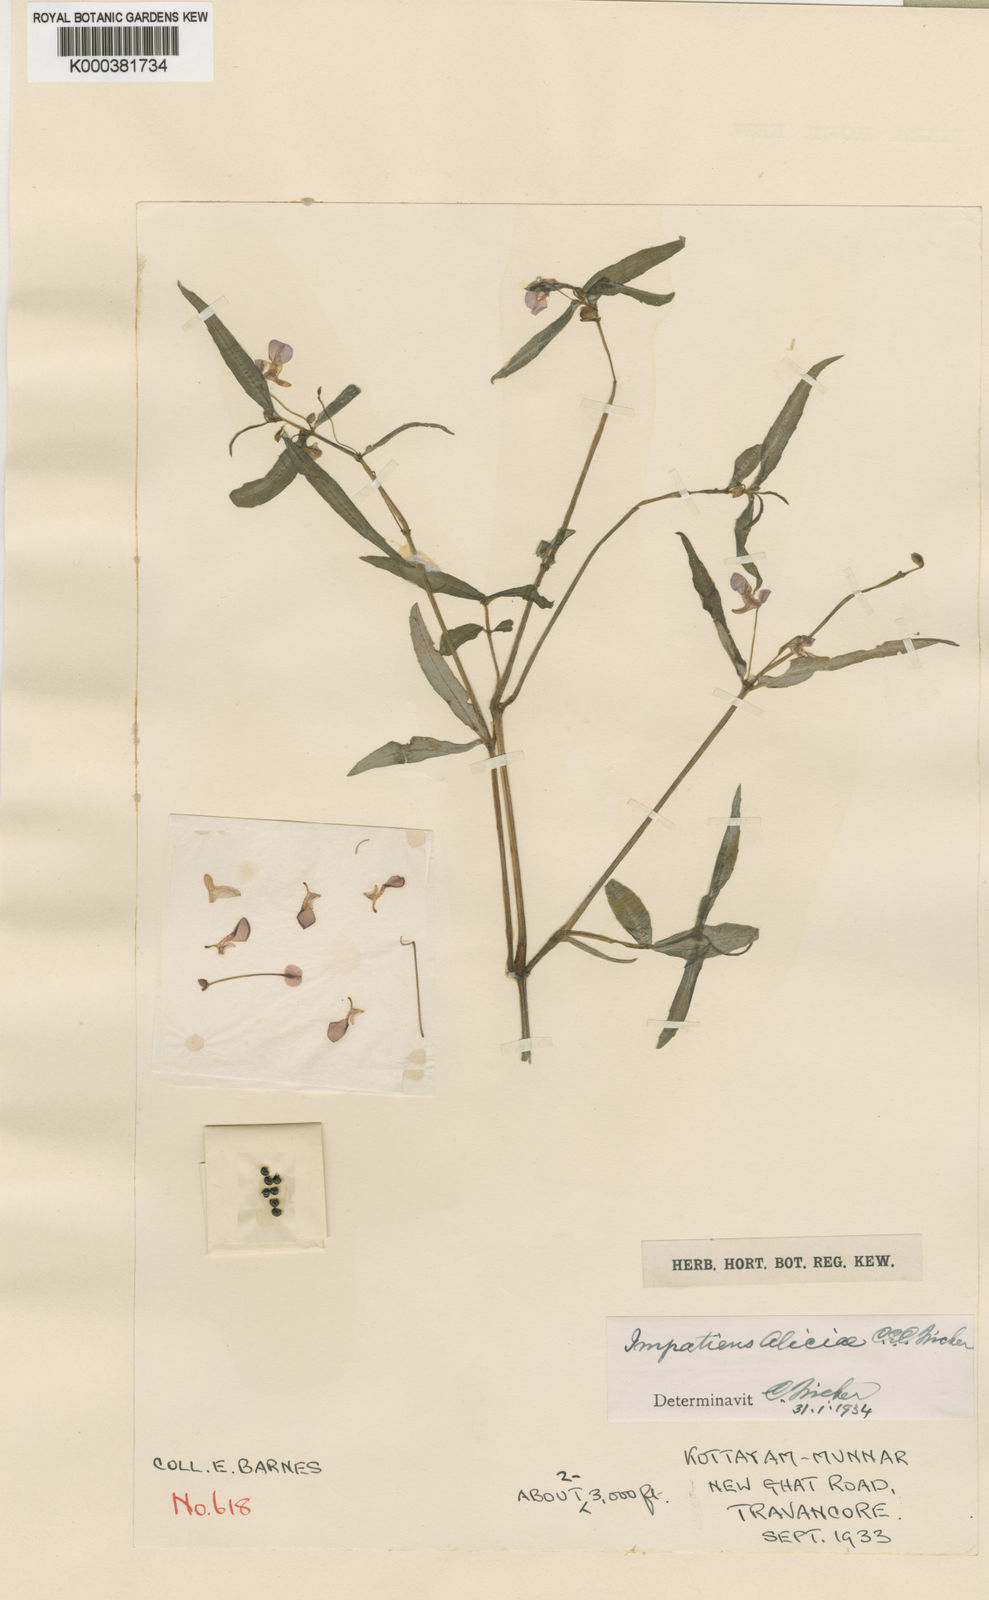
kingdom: Plantae
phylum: Tracheophyta
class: Magnoliopsida
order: Ericales
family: Balsaminaceae
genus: Impatiens
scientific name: Impatiens aliciae
